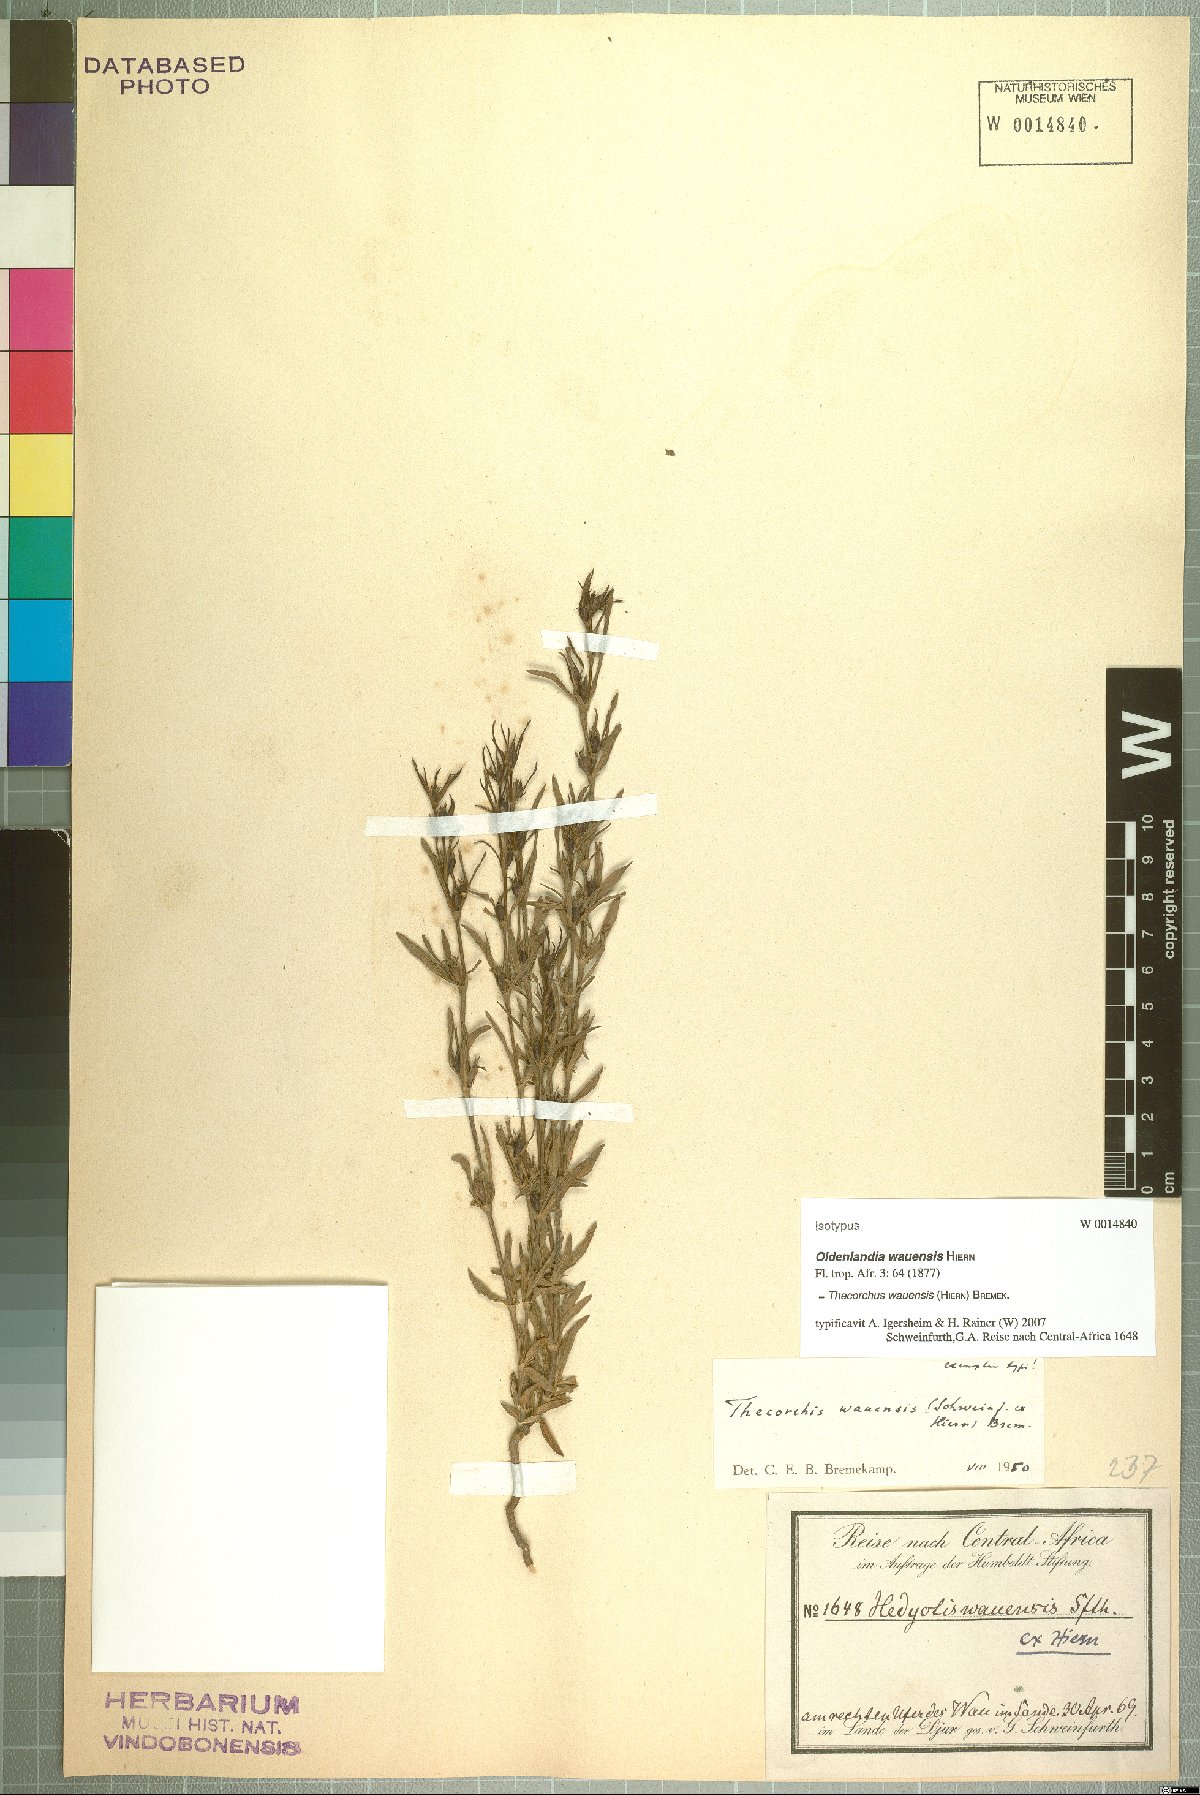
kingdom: Plantae
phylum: Tracheophyta
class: Magnoliopsida
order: Gentianales
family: Rubiaceae
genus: Oldenlandia
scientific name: Oldenlandia wauensis
